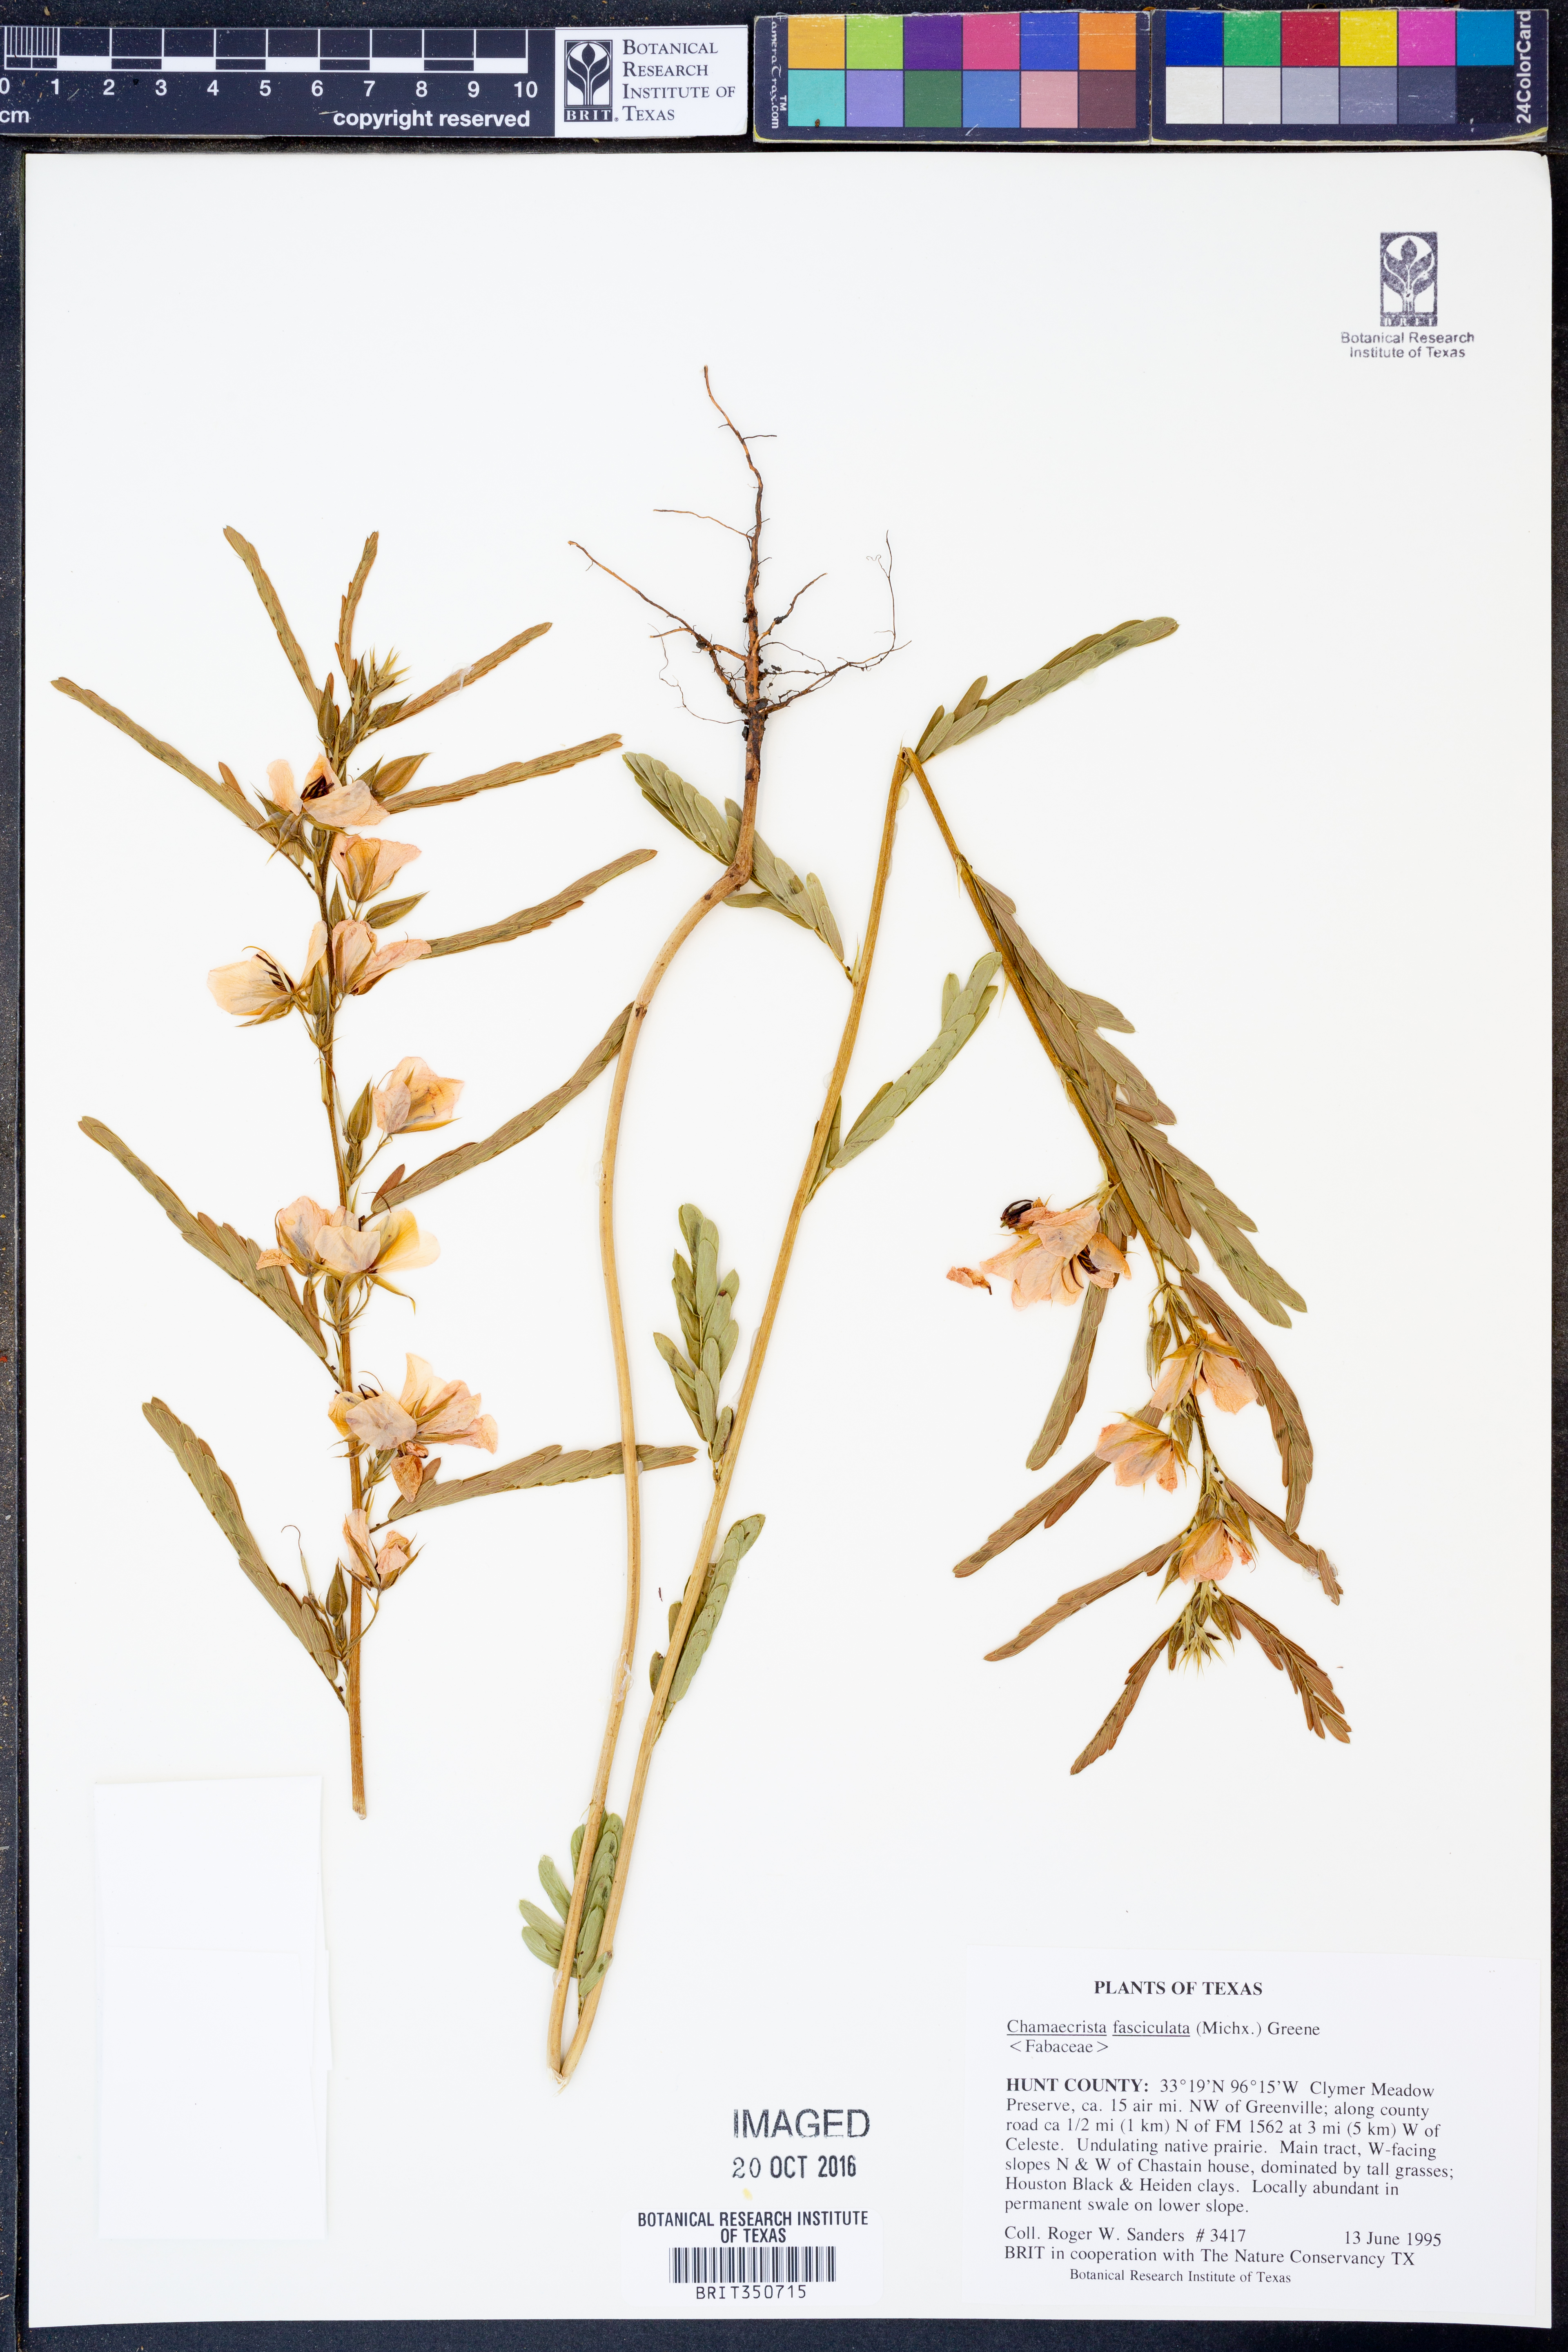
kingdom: Plantae
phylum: Tracheophyta
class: Magnoliopsida
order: Fabales
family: Fabaceae
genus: Chamaecrista
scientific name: Chamaecrista fasciculata
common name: Golden cassia
